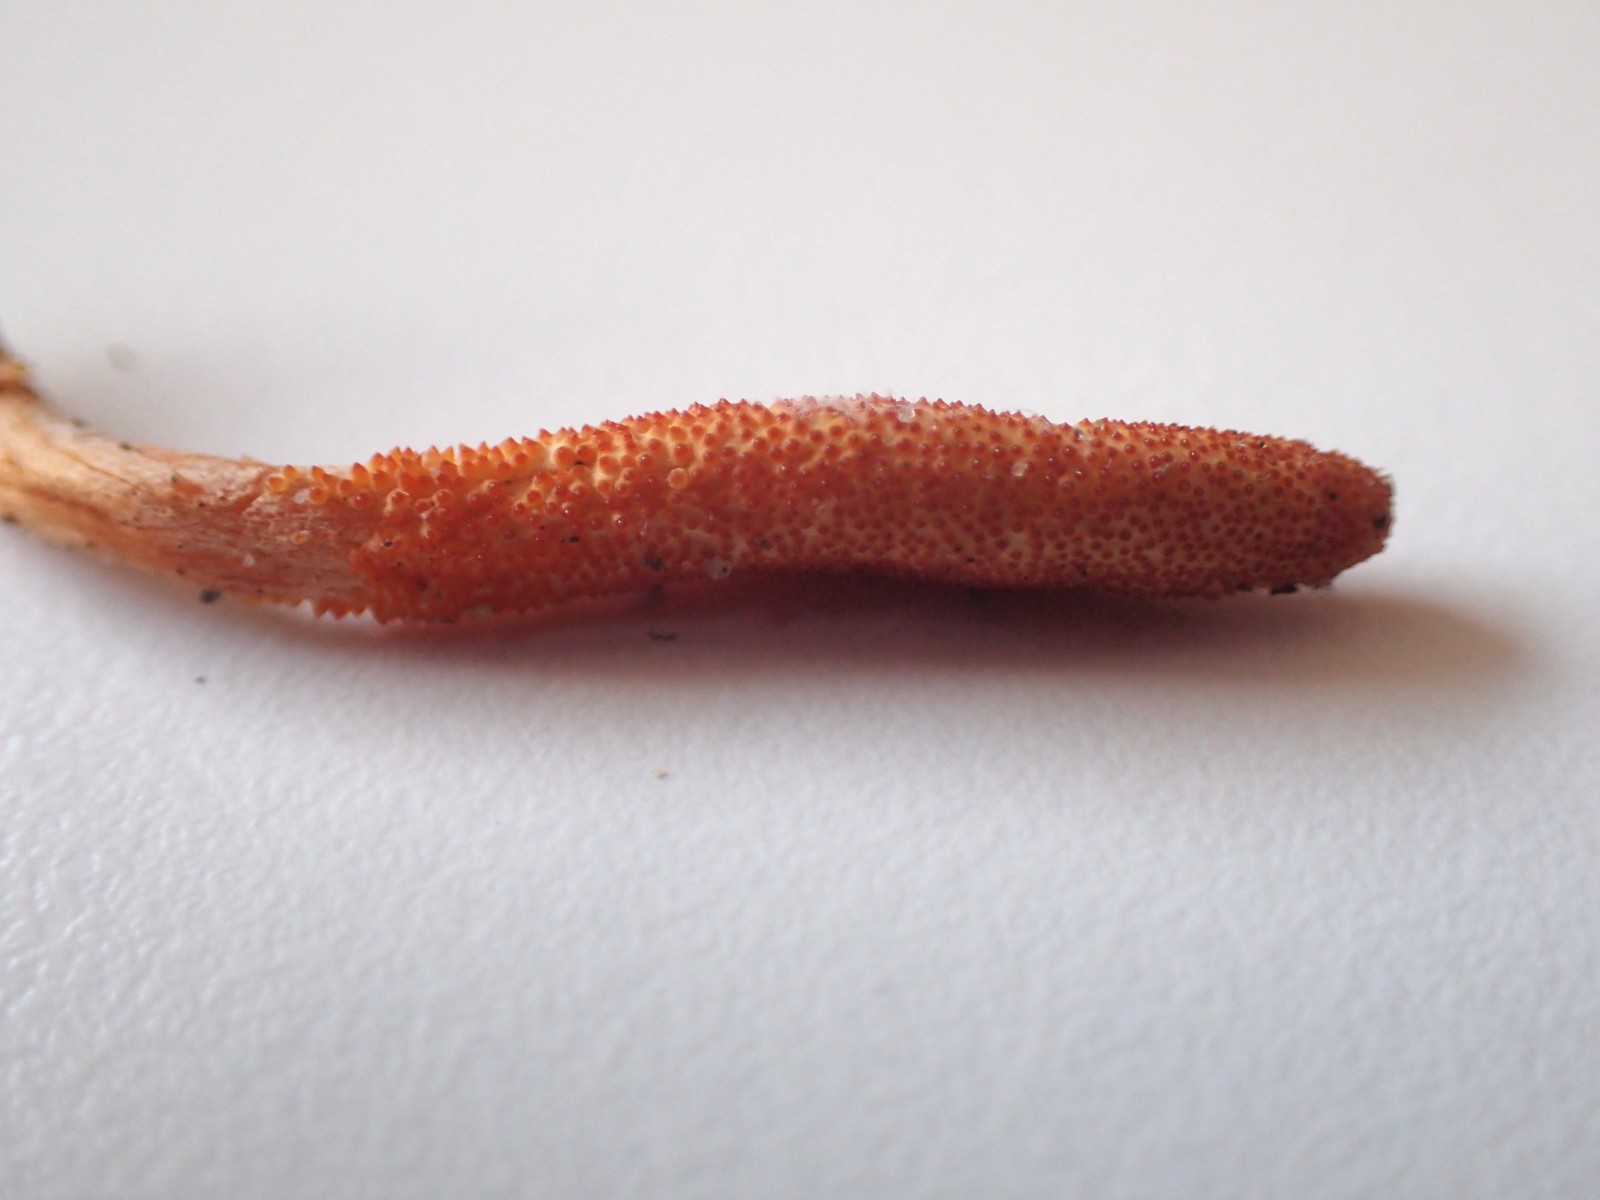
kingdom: Fungi
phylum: Ascomycota
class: Sordariomycetes
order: Hypocreales
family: Cordycipitaceae
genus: Cordyceps
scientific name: Cordyceps militaris
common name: puppe-snyltekølle
